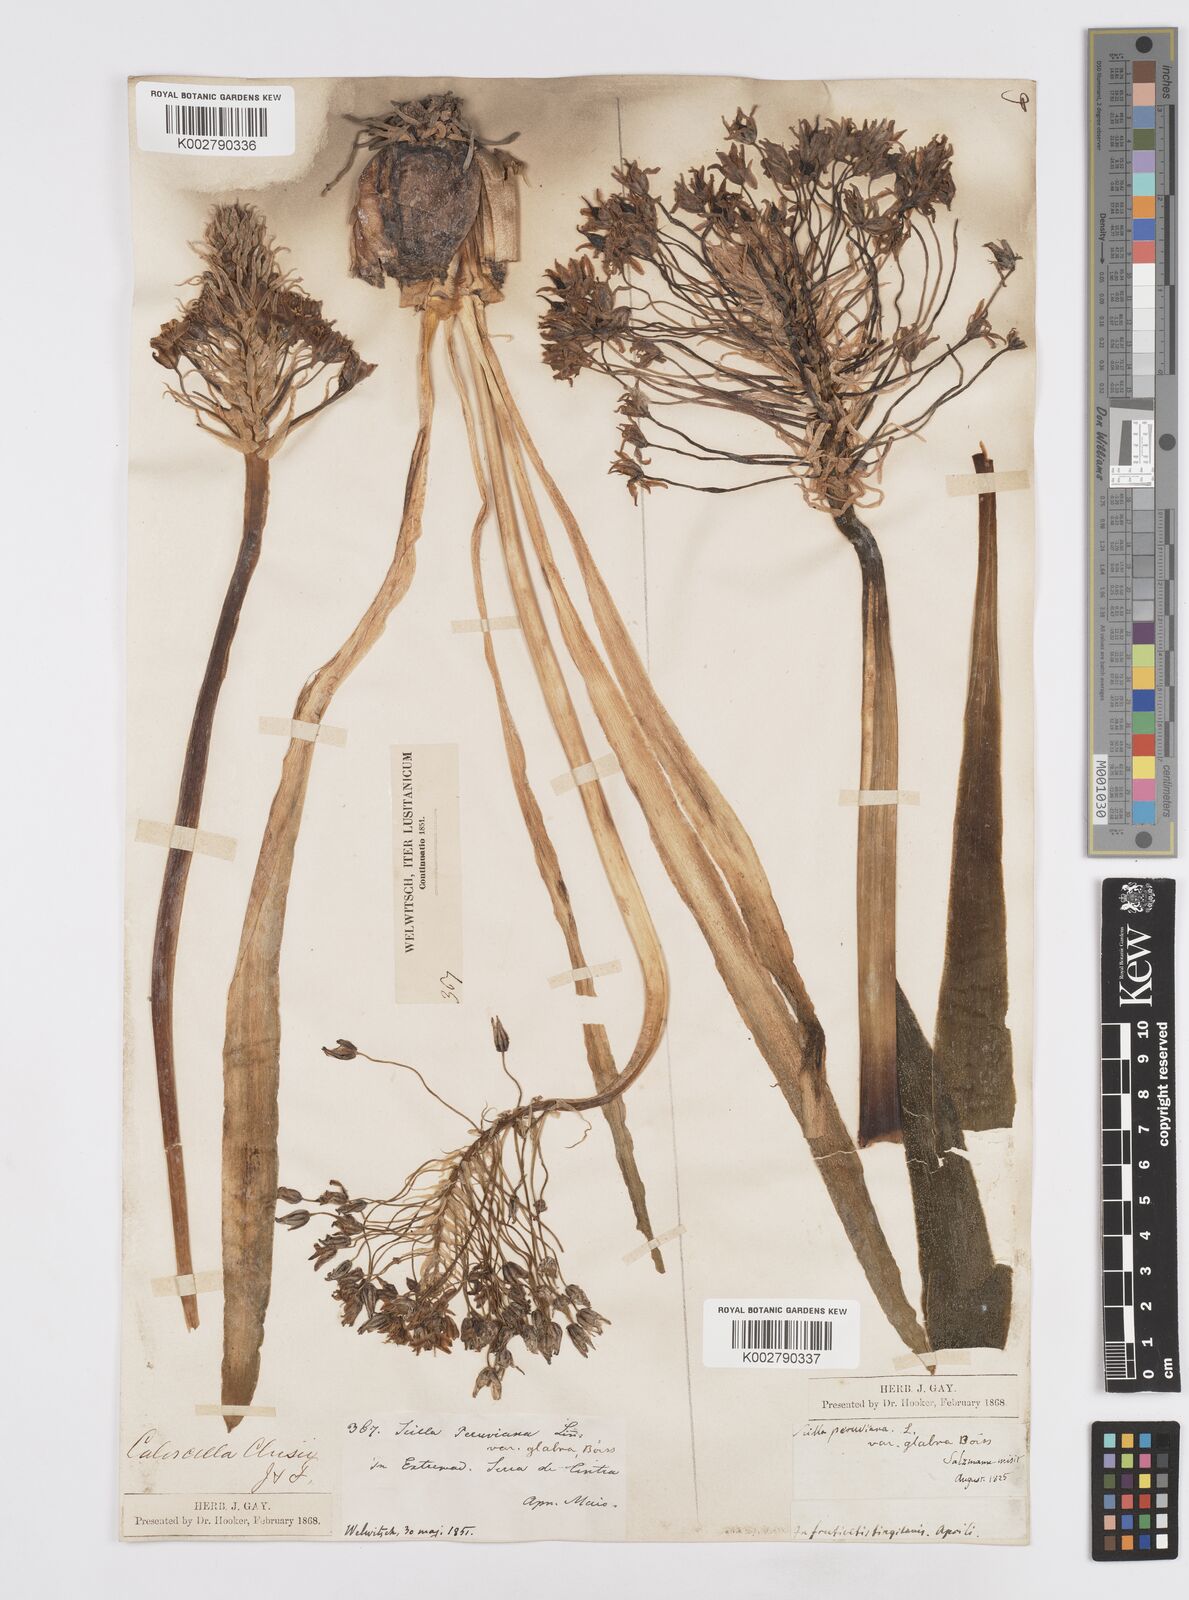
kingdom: Plantae
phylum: Tracheophyta
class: Liliopsida
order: Asparagales
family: Asparagaceae
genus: Scilla
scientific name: Scilla
